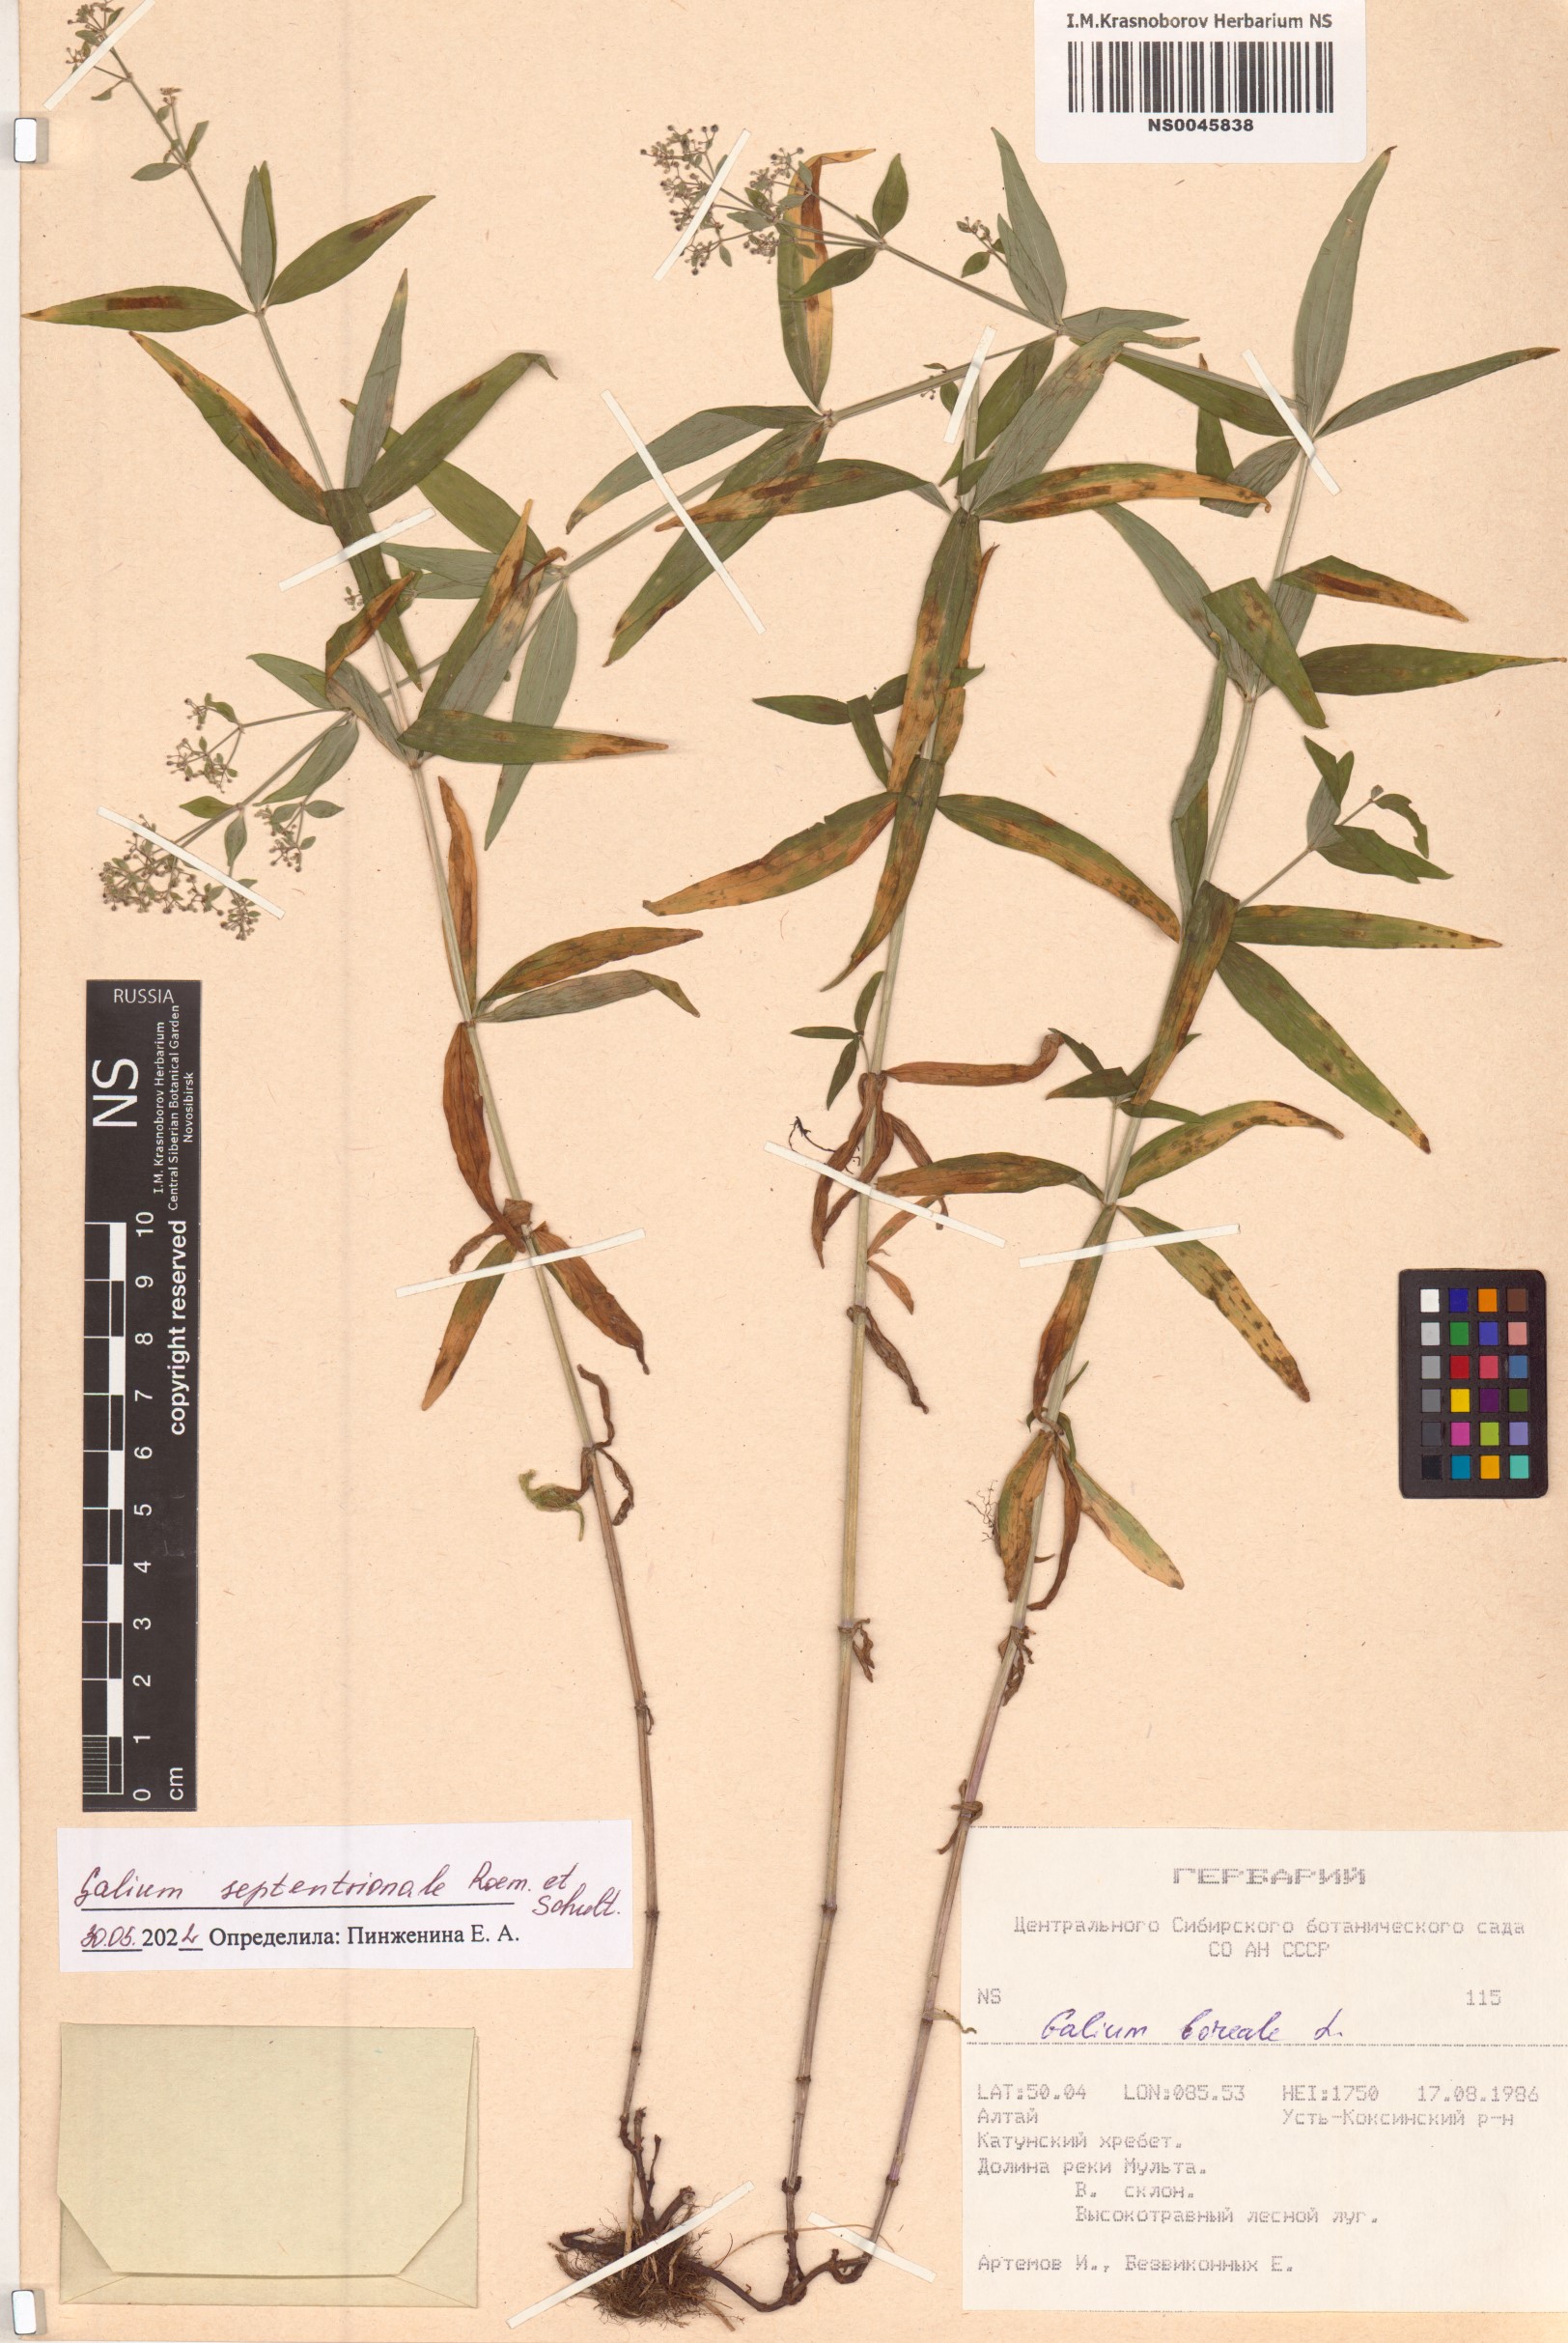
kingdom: Plantae
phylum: Tracheophyta
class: Magnoliopsida
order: Gentianales
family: Rubiaceae
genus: Galium
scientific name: Galium boreale
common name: Northern bedstraw
